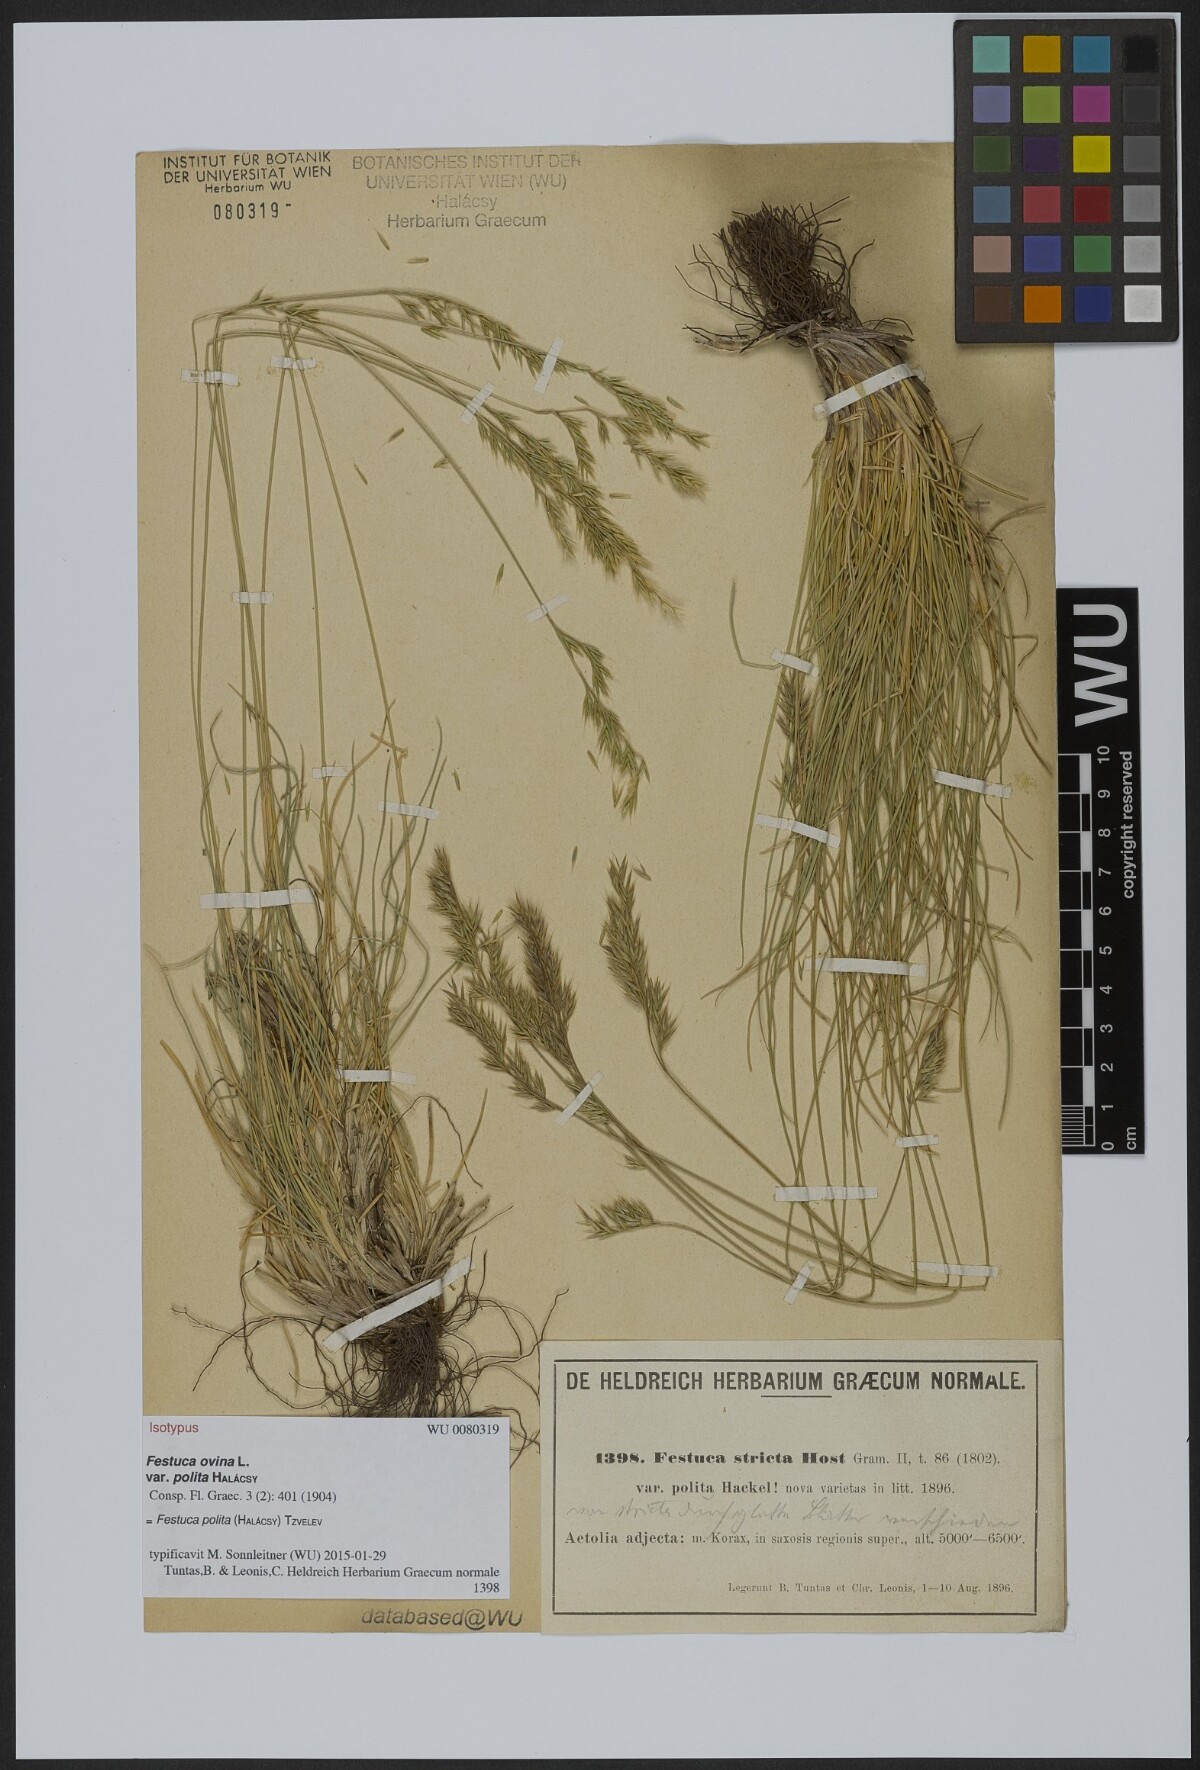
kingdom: Plantae
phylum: Tracheophyta
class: Liliopsida
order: Poales
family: Poaceae
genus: Festuca
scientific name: Festuca polita
